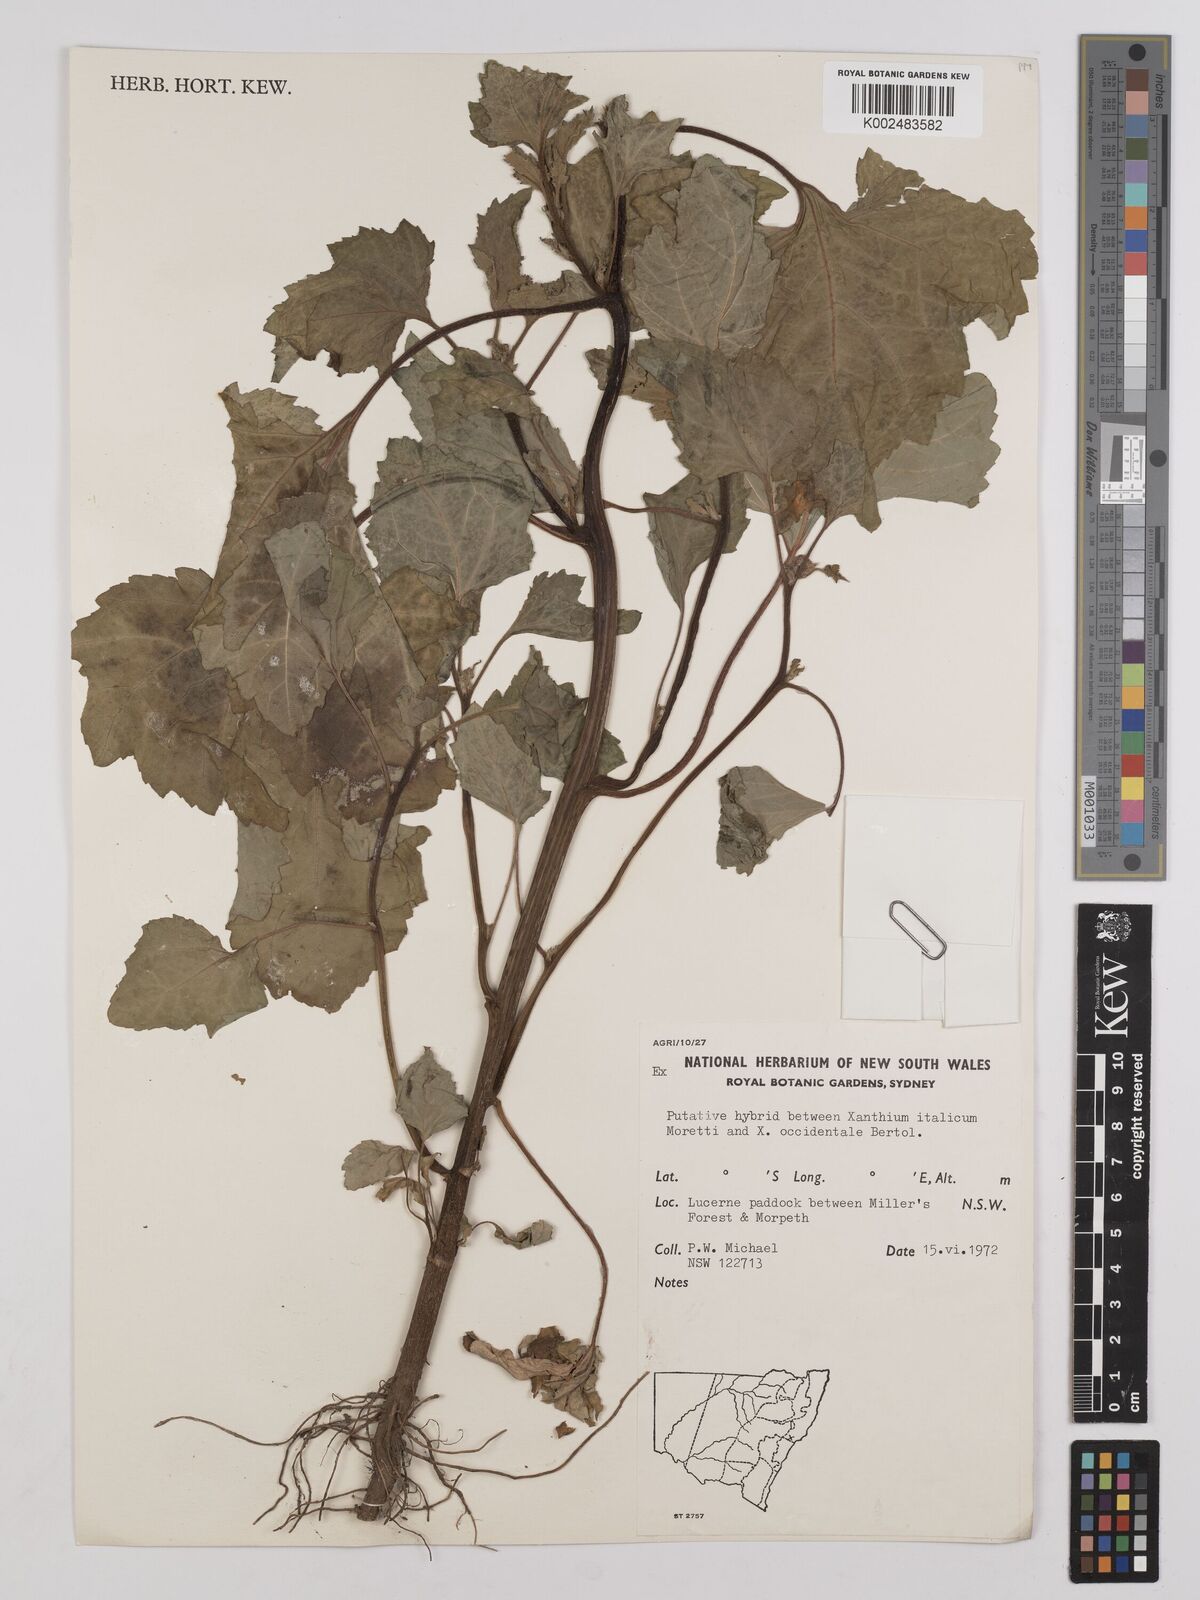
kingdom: Plantae
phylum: Tracheophyta
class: Magnoliopsida
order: Asterales
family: Asteraceae
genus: Xanthium
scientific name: Xanthium
